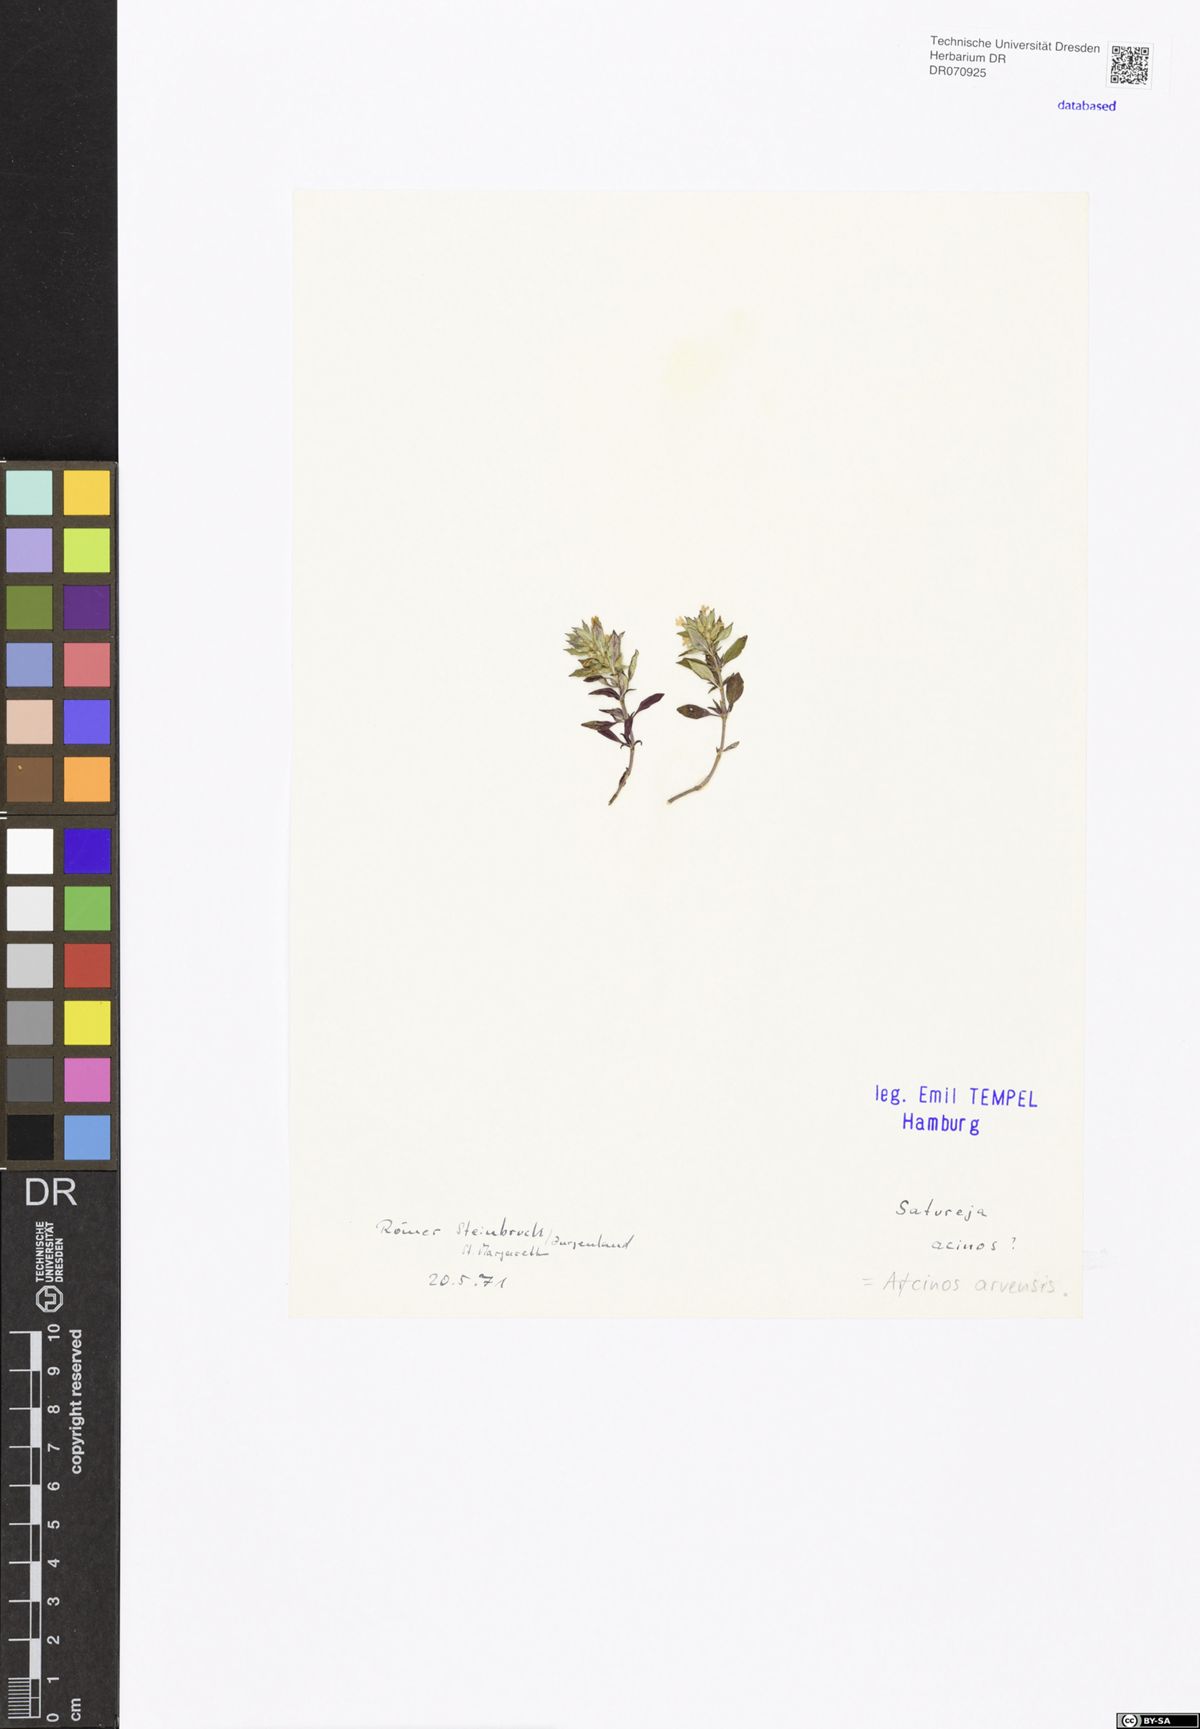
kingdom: Plantae
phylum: Tracheophyta
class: Magnoliopsida
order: Lamiales
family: Lamiaceae
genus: Clinopodium
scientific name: Clinopodium acinos
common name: Basil thyme
